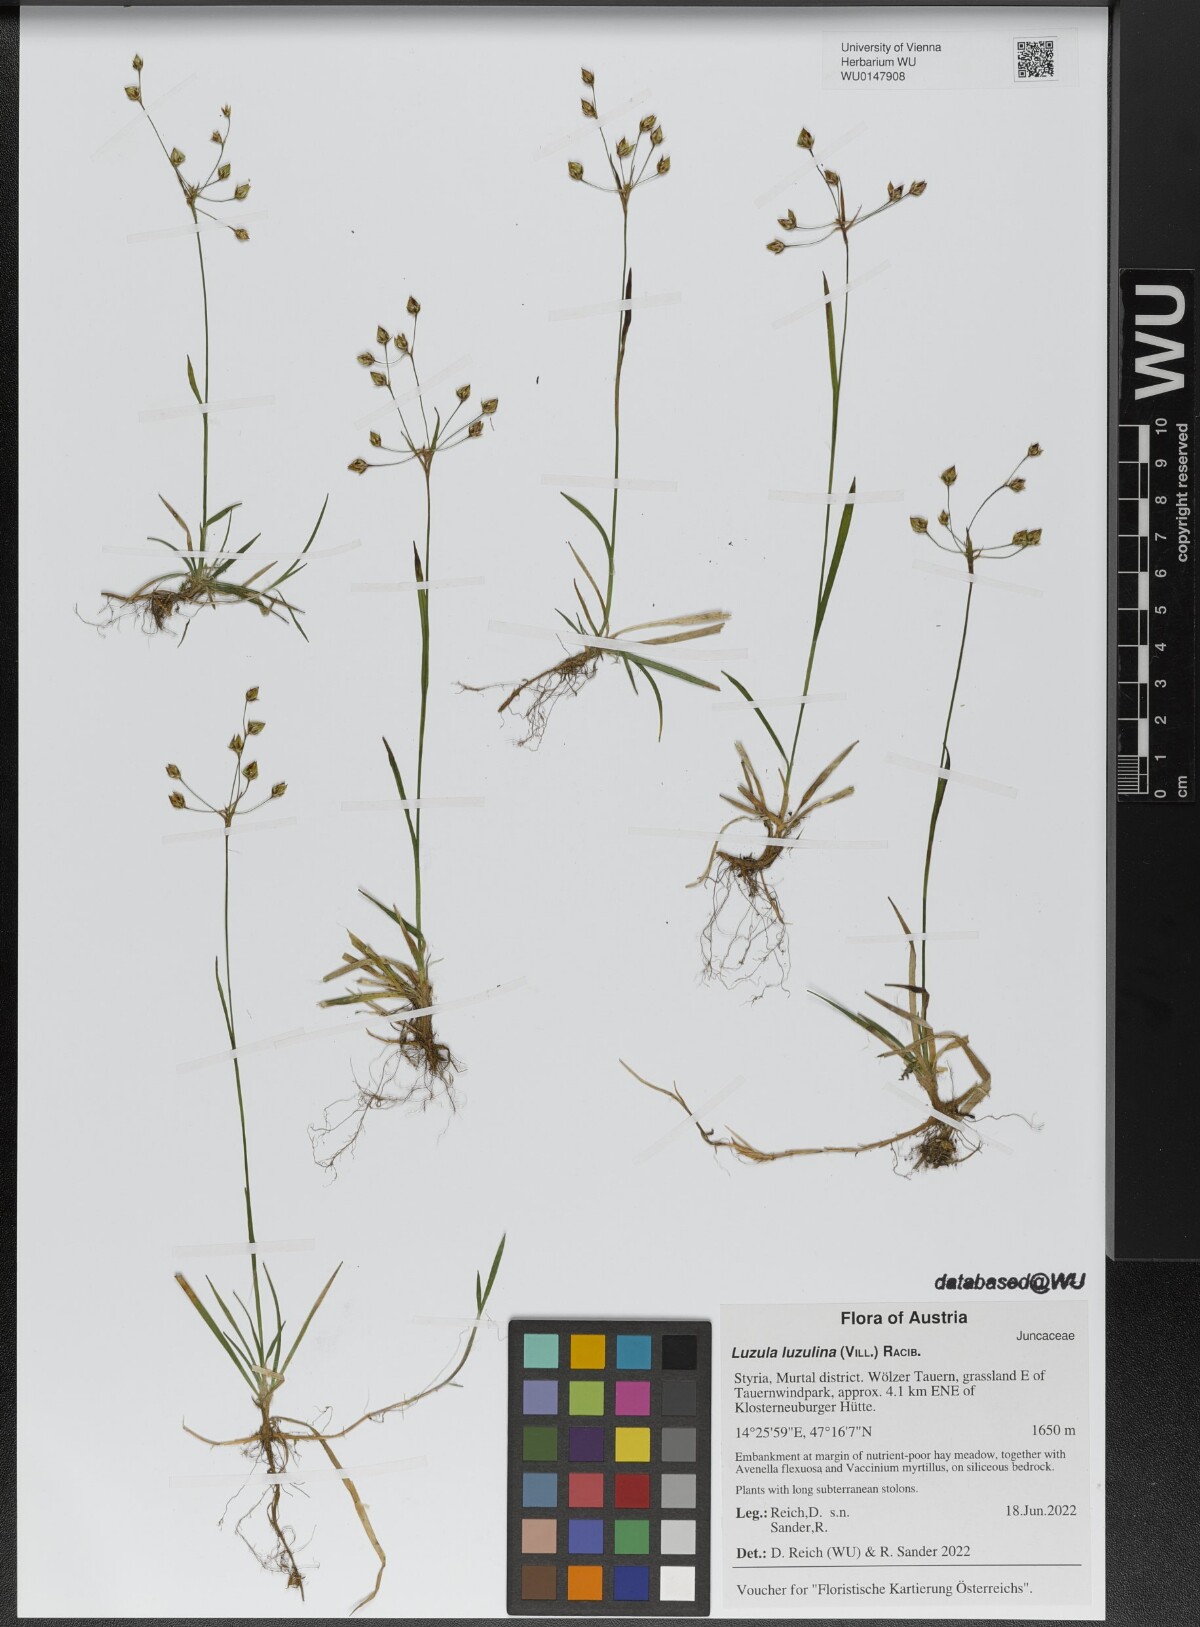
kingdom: Plantae
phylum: Tracheophyta
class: Liliopsida
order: Poales
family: Juncaceae
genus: Luzula
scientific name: Luzula luzulina
